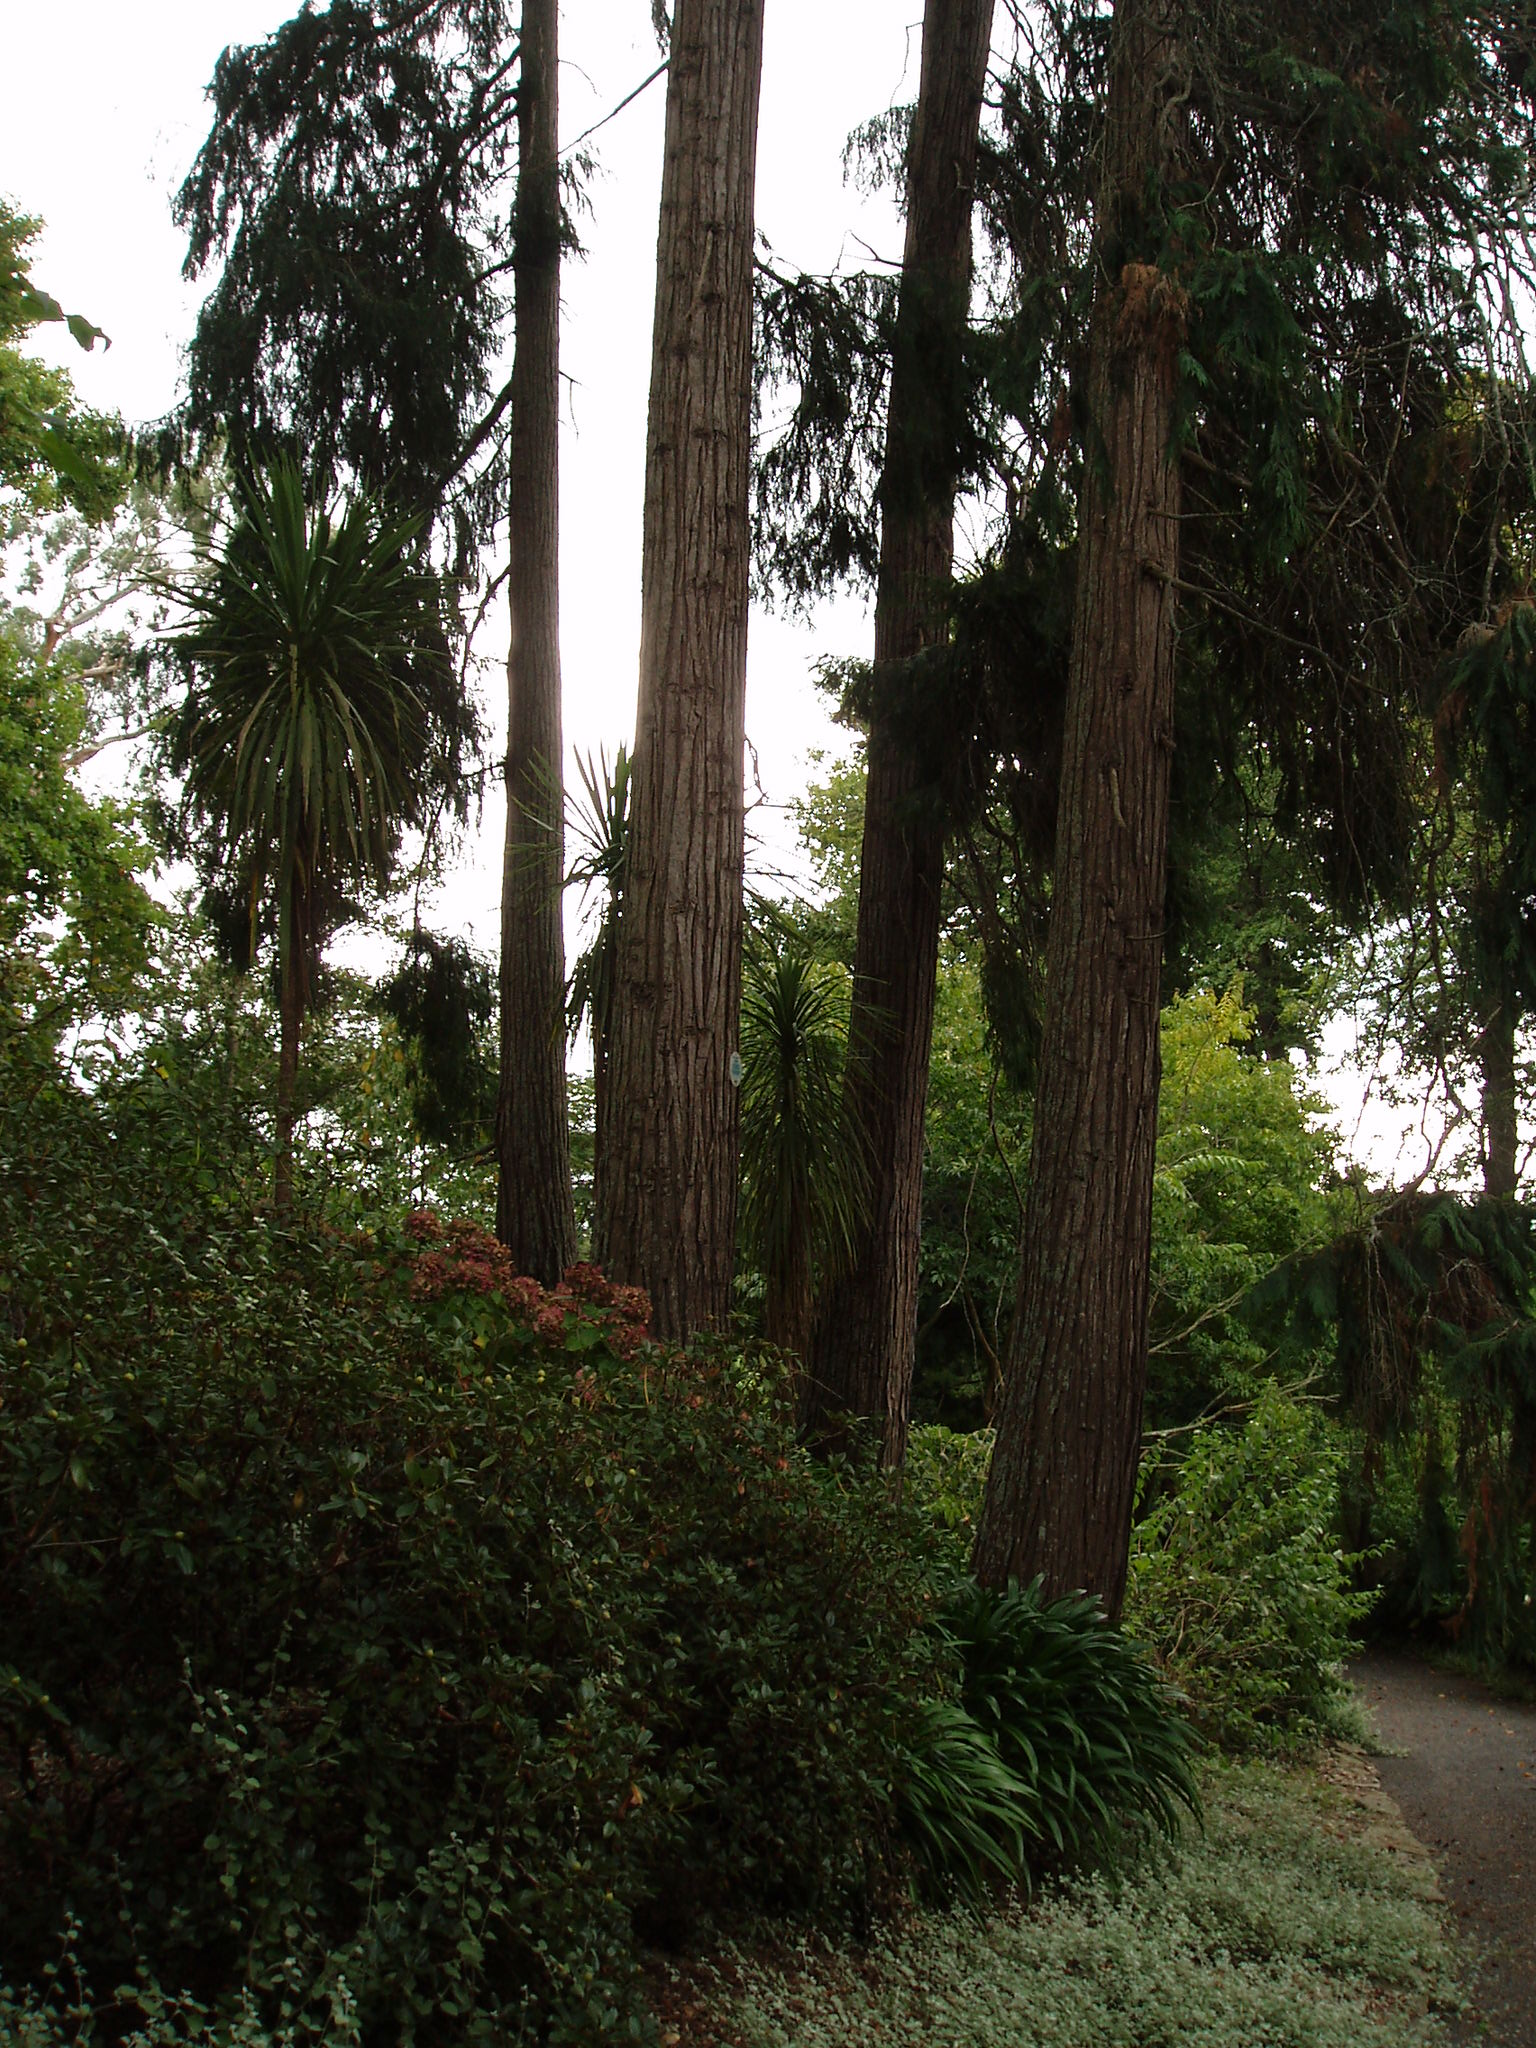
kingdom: Plantae
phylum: Tracheophyta
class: Pinopsida
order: Pinales
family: Cupressaceae
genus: Chamaecyparis
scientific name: Chamaecyparis lawsoniana
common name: Lawson's cypress
